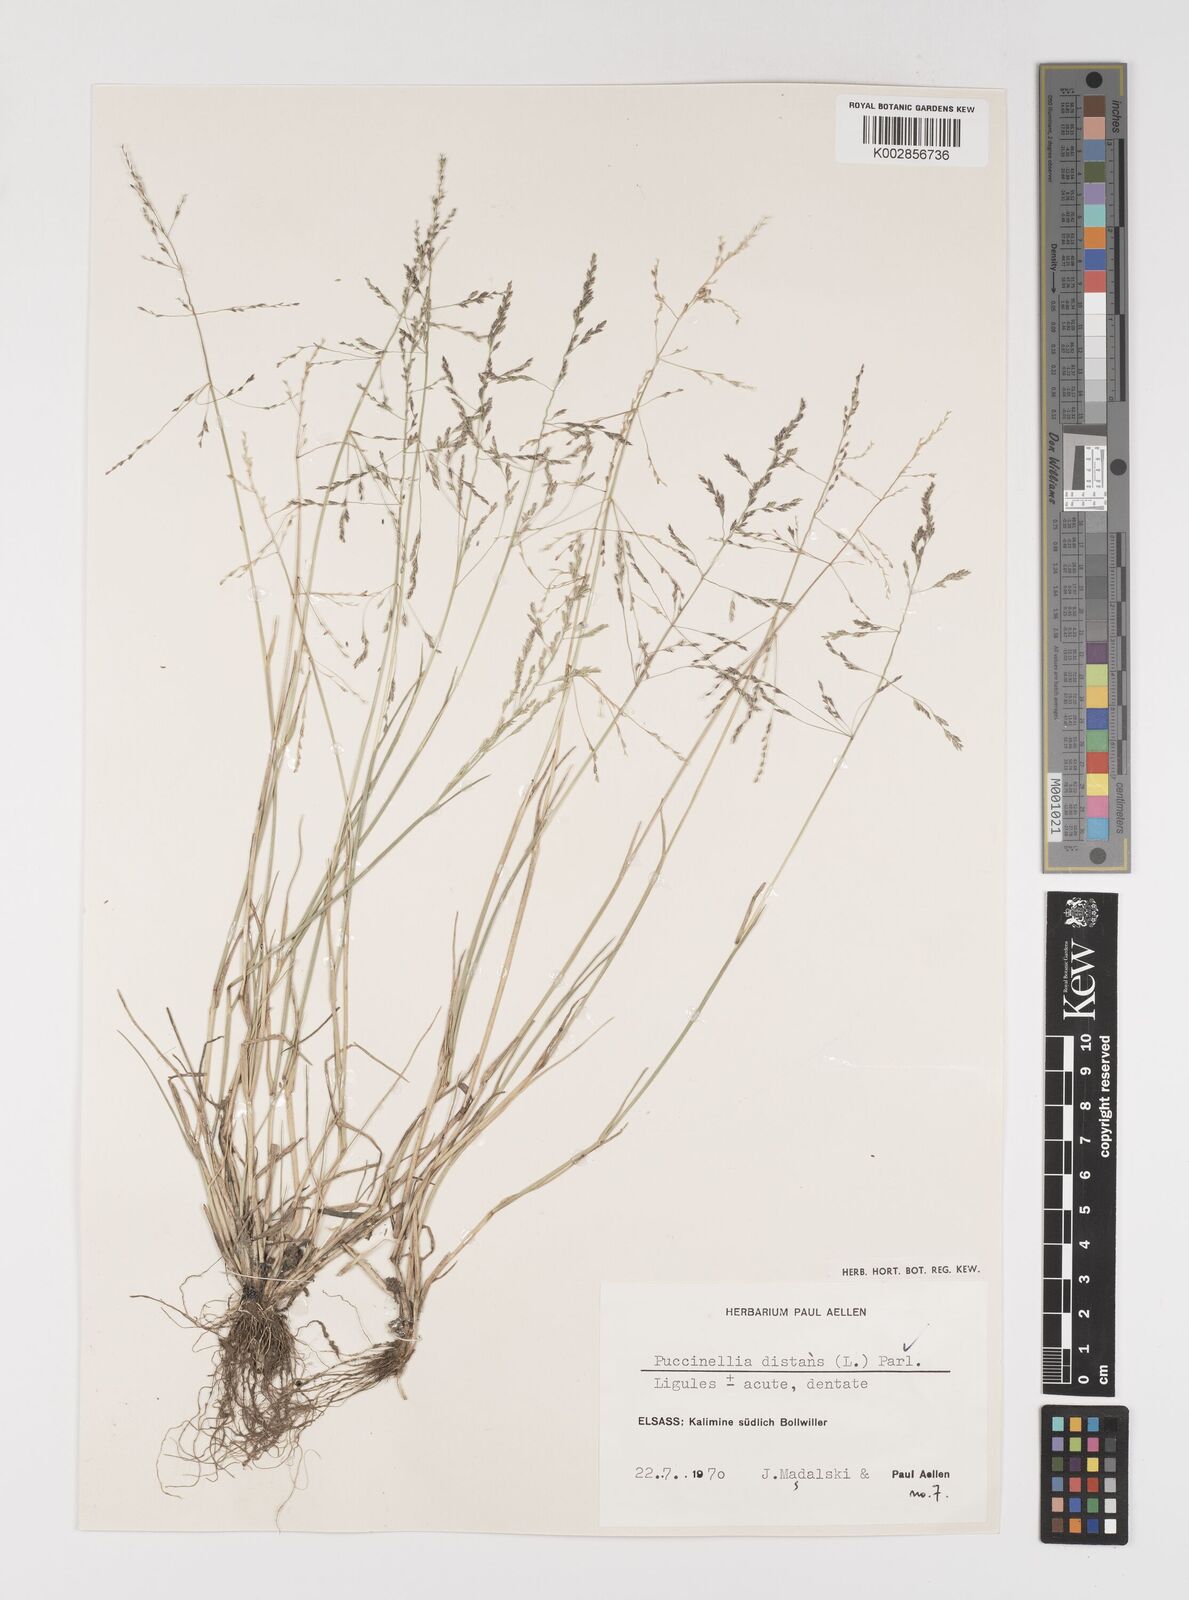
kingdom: Plantae
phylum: Tracheophyta
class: Liliopsida
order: Poales
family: Poaceae
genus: Puccinellia
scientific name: Puccinellia
